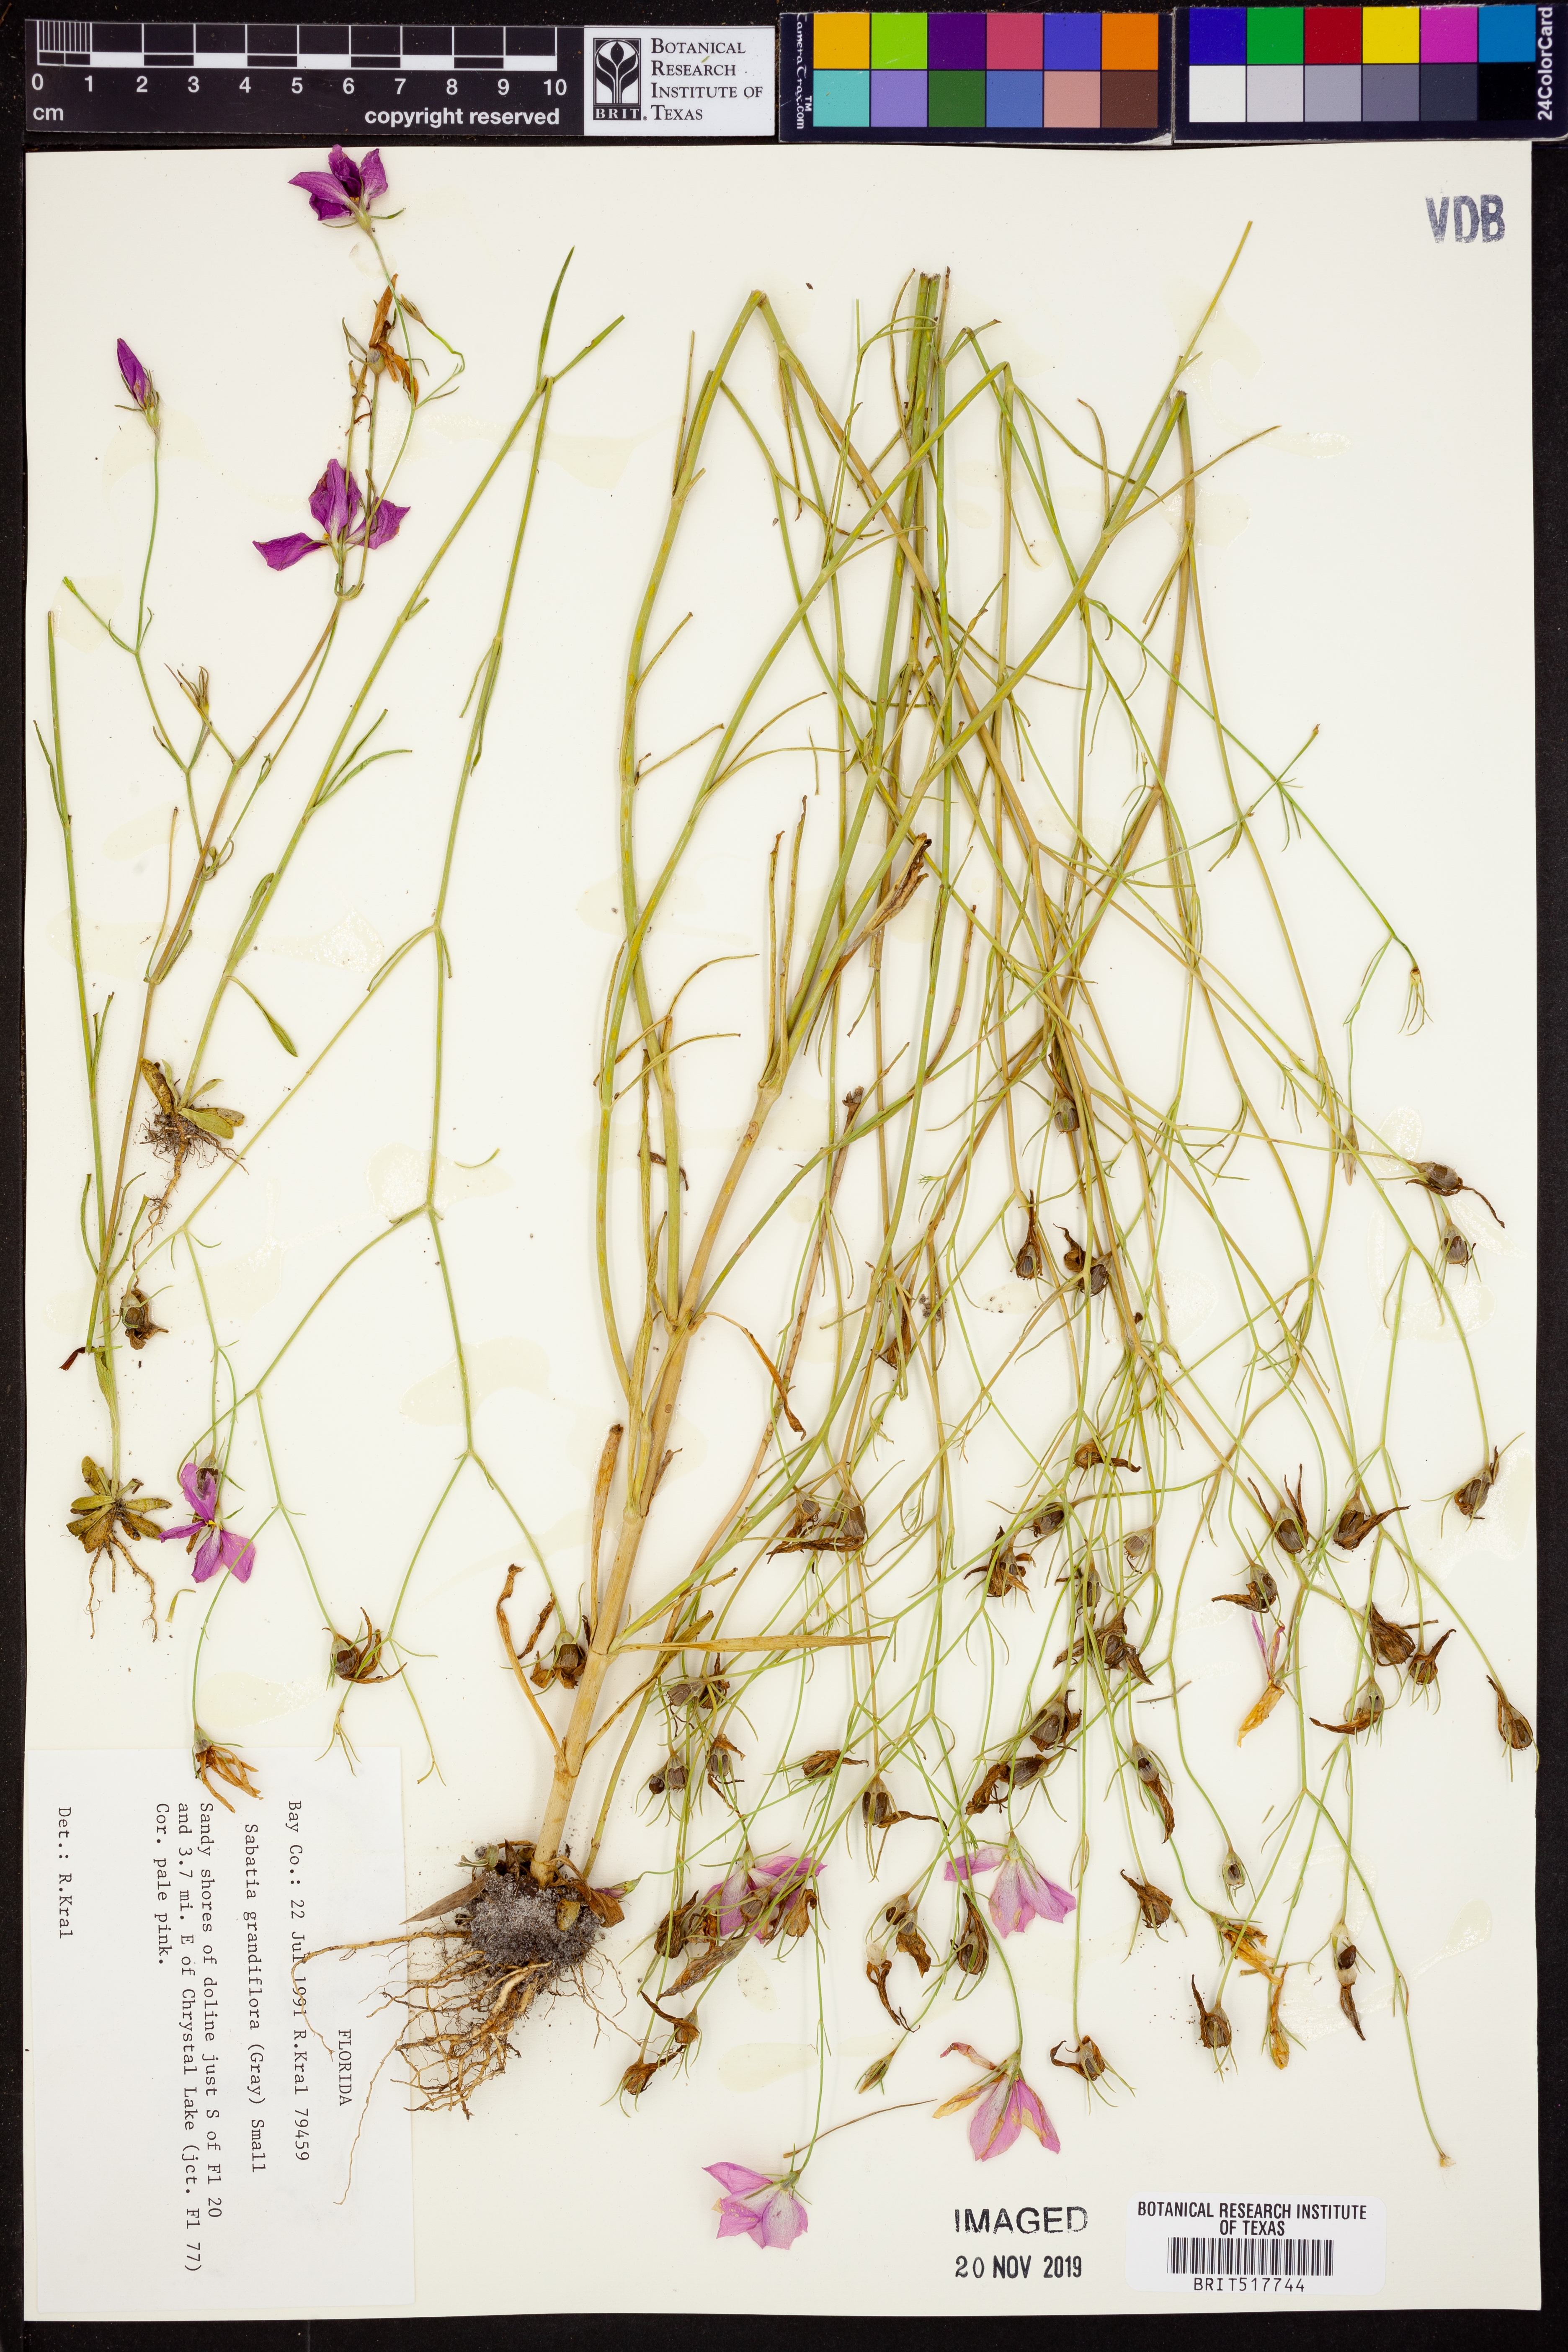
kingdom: Plantae
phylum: Tracheophyta
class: Magnoliopsida
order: Gentianales
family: Gentianaceae
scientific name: Gentianaceae
